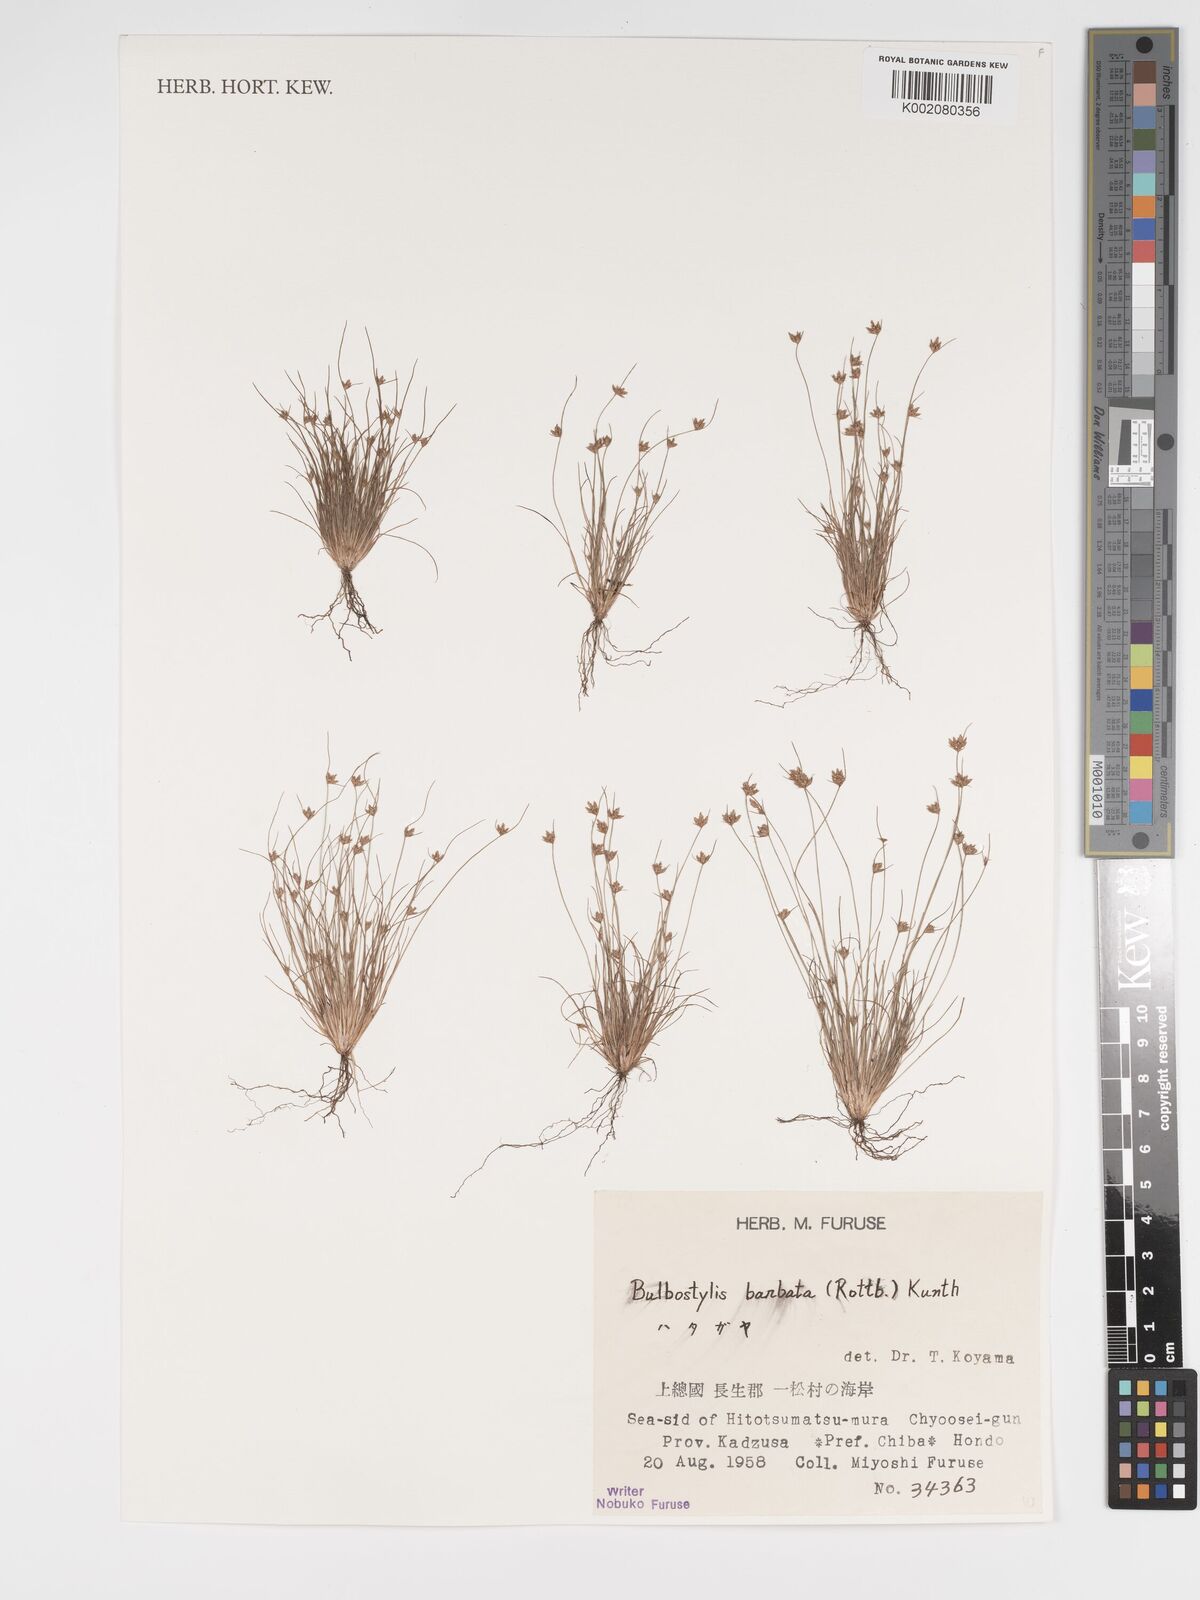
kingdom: Plantae
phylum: Tracheophyta
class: Liliopsida
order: Poales
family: Cyperaceae
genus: Bulbostylis
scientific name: Bulbostylis barbata
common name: Watergrass
